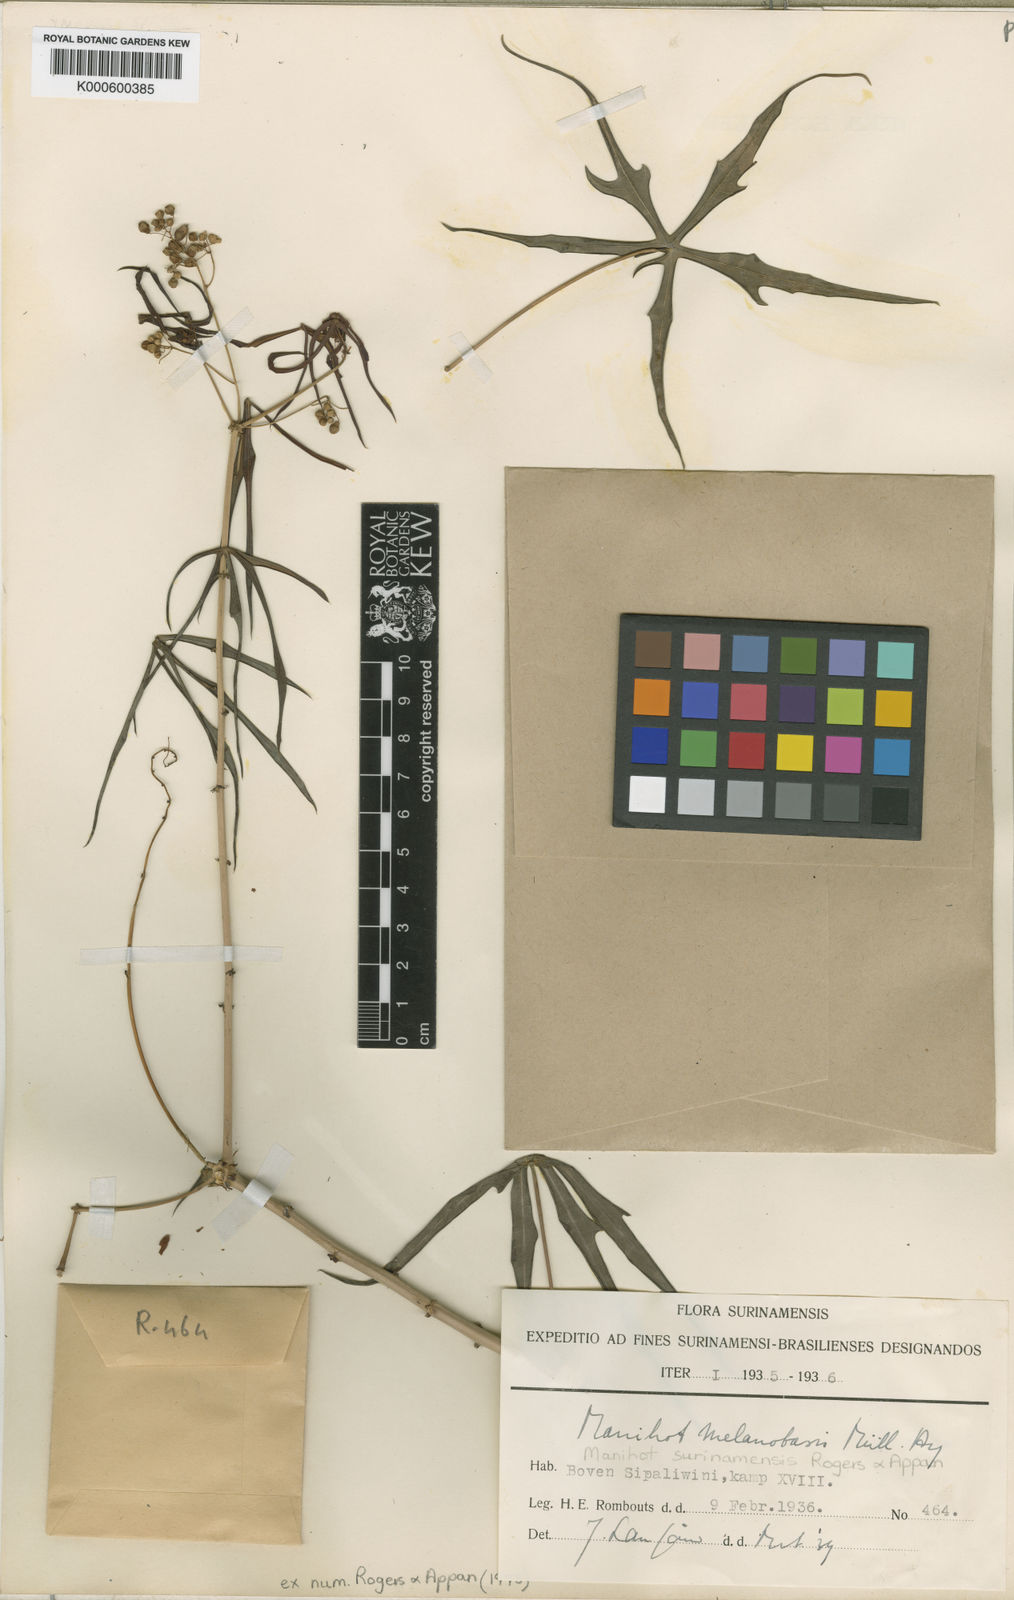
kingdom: Plantae
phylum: Tracheophyta
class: Magnoliopsida
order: Malpighiales
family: Euphorbiaceae
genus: Manihot
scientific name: Manihot surinamensis
